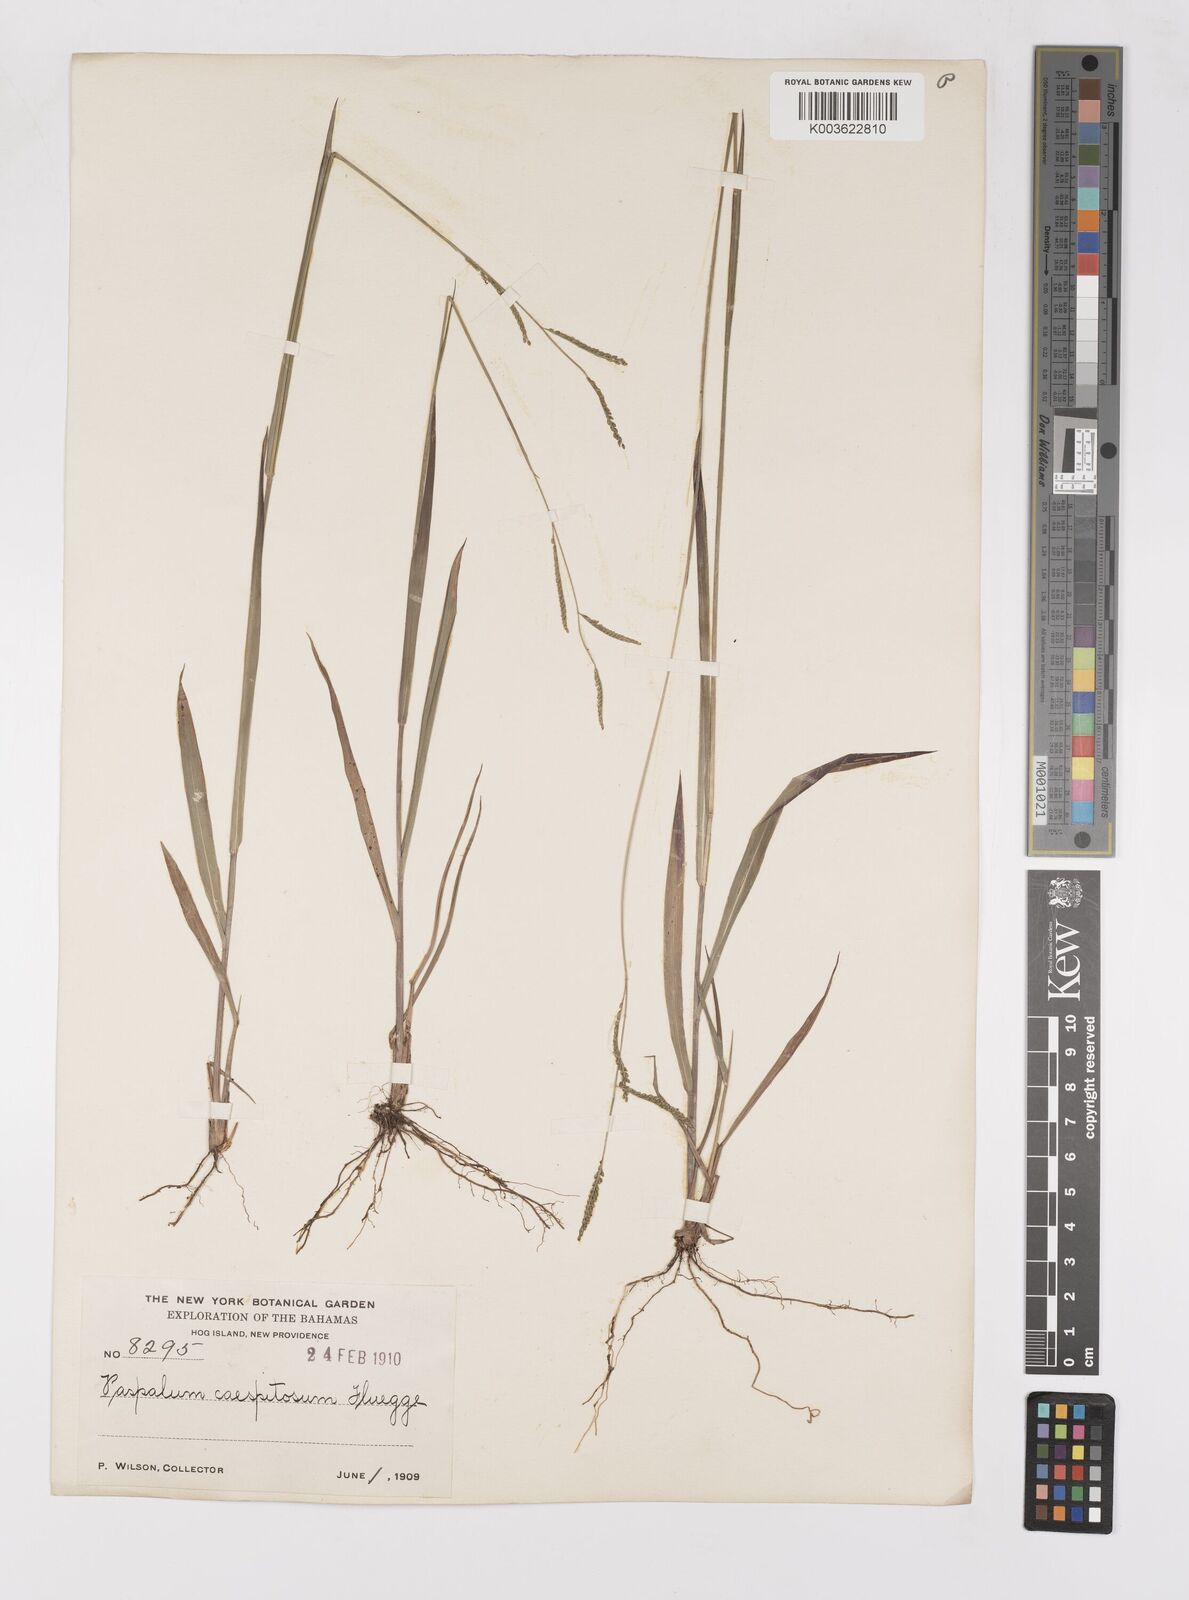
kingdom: Plantae
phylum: Tracheophyta
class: Liliopsida
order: Poales
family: Poaceae
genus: Paspalum
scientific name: Paspalum caespitosum
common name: Blue crowngrass
